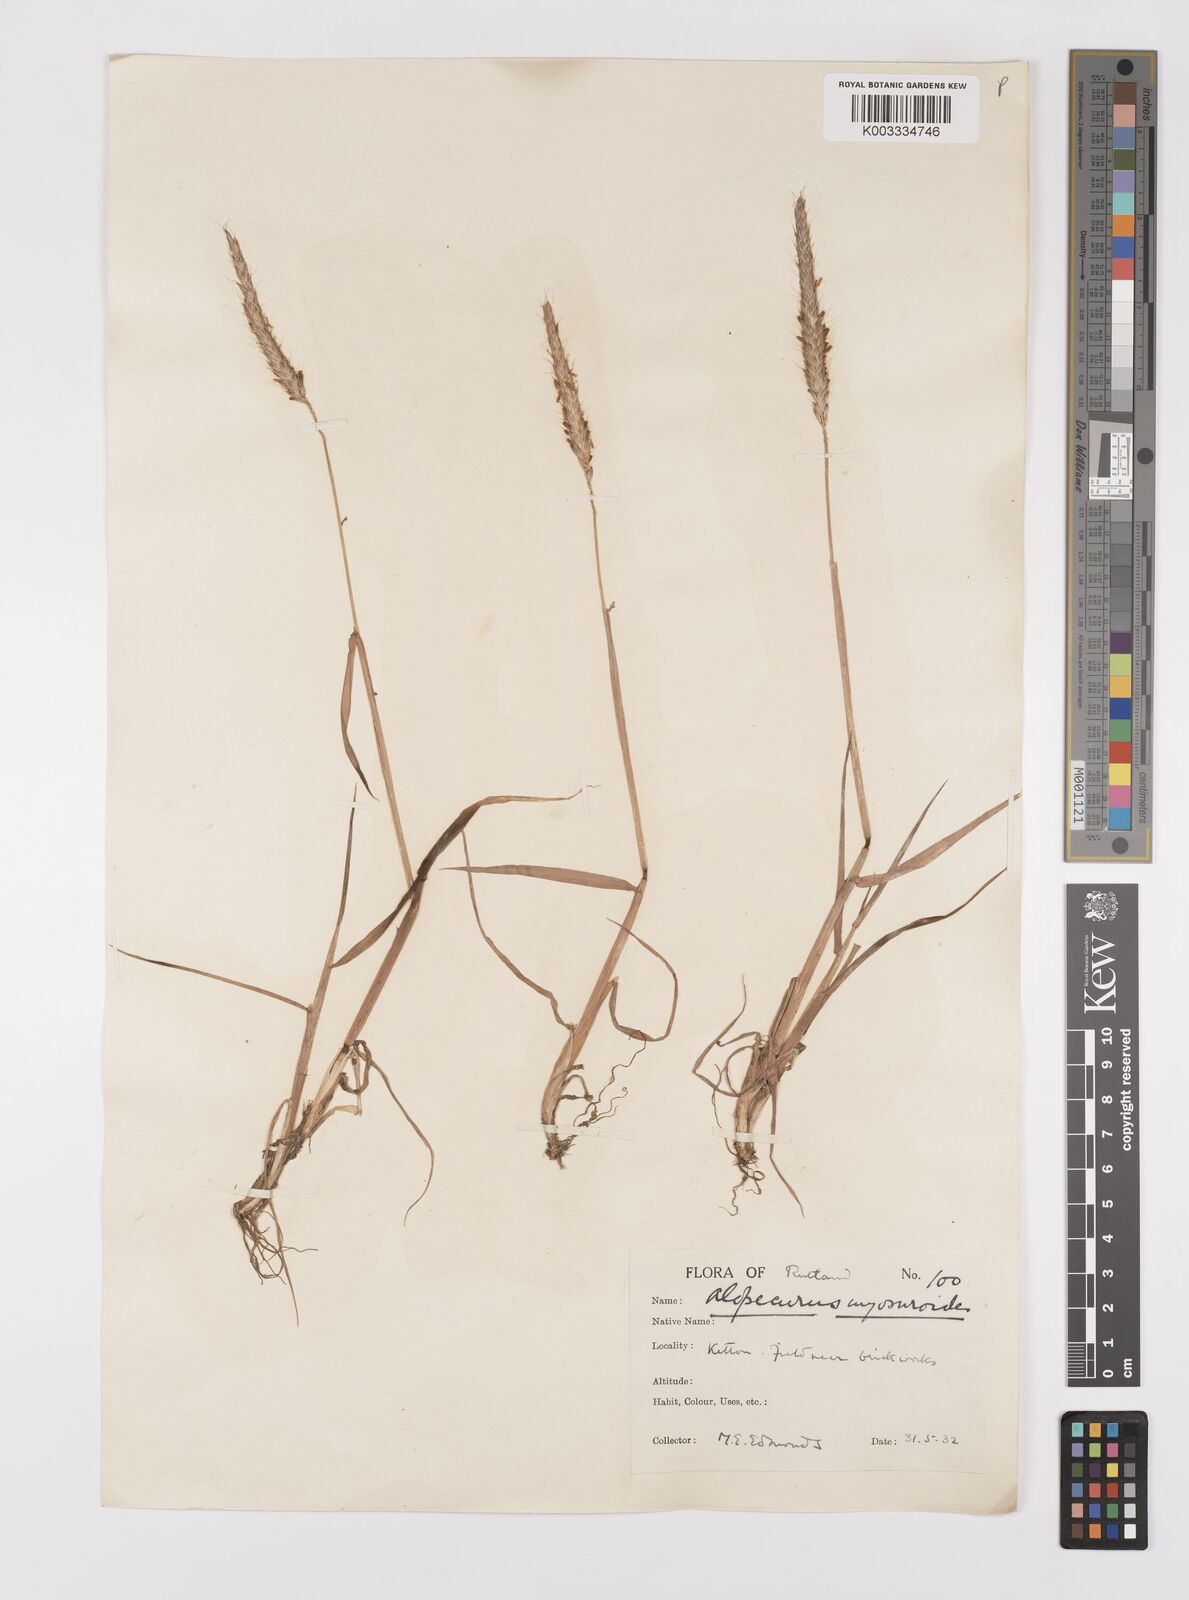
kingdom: Plantae
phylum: Tracheophyta
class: Liliopsida
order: Poales
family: Poaceae
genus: Alopecurus
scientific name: Alopecurus myosuroides
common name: Black-grass
